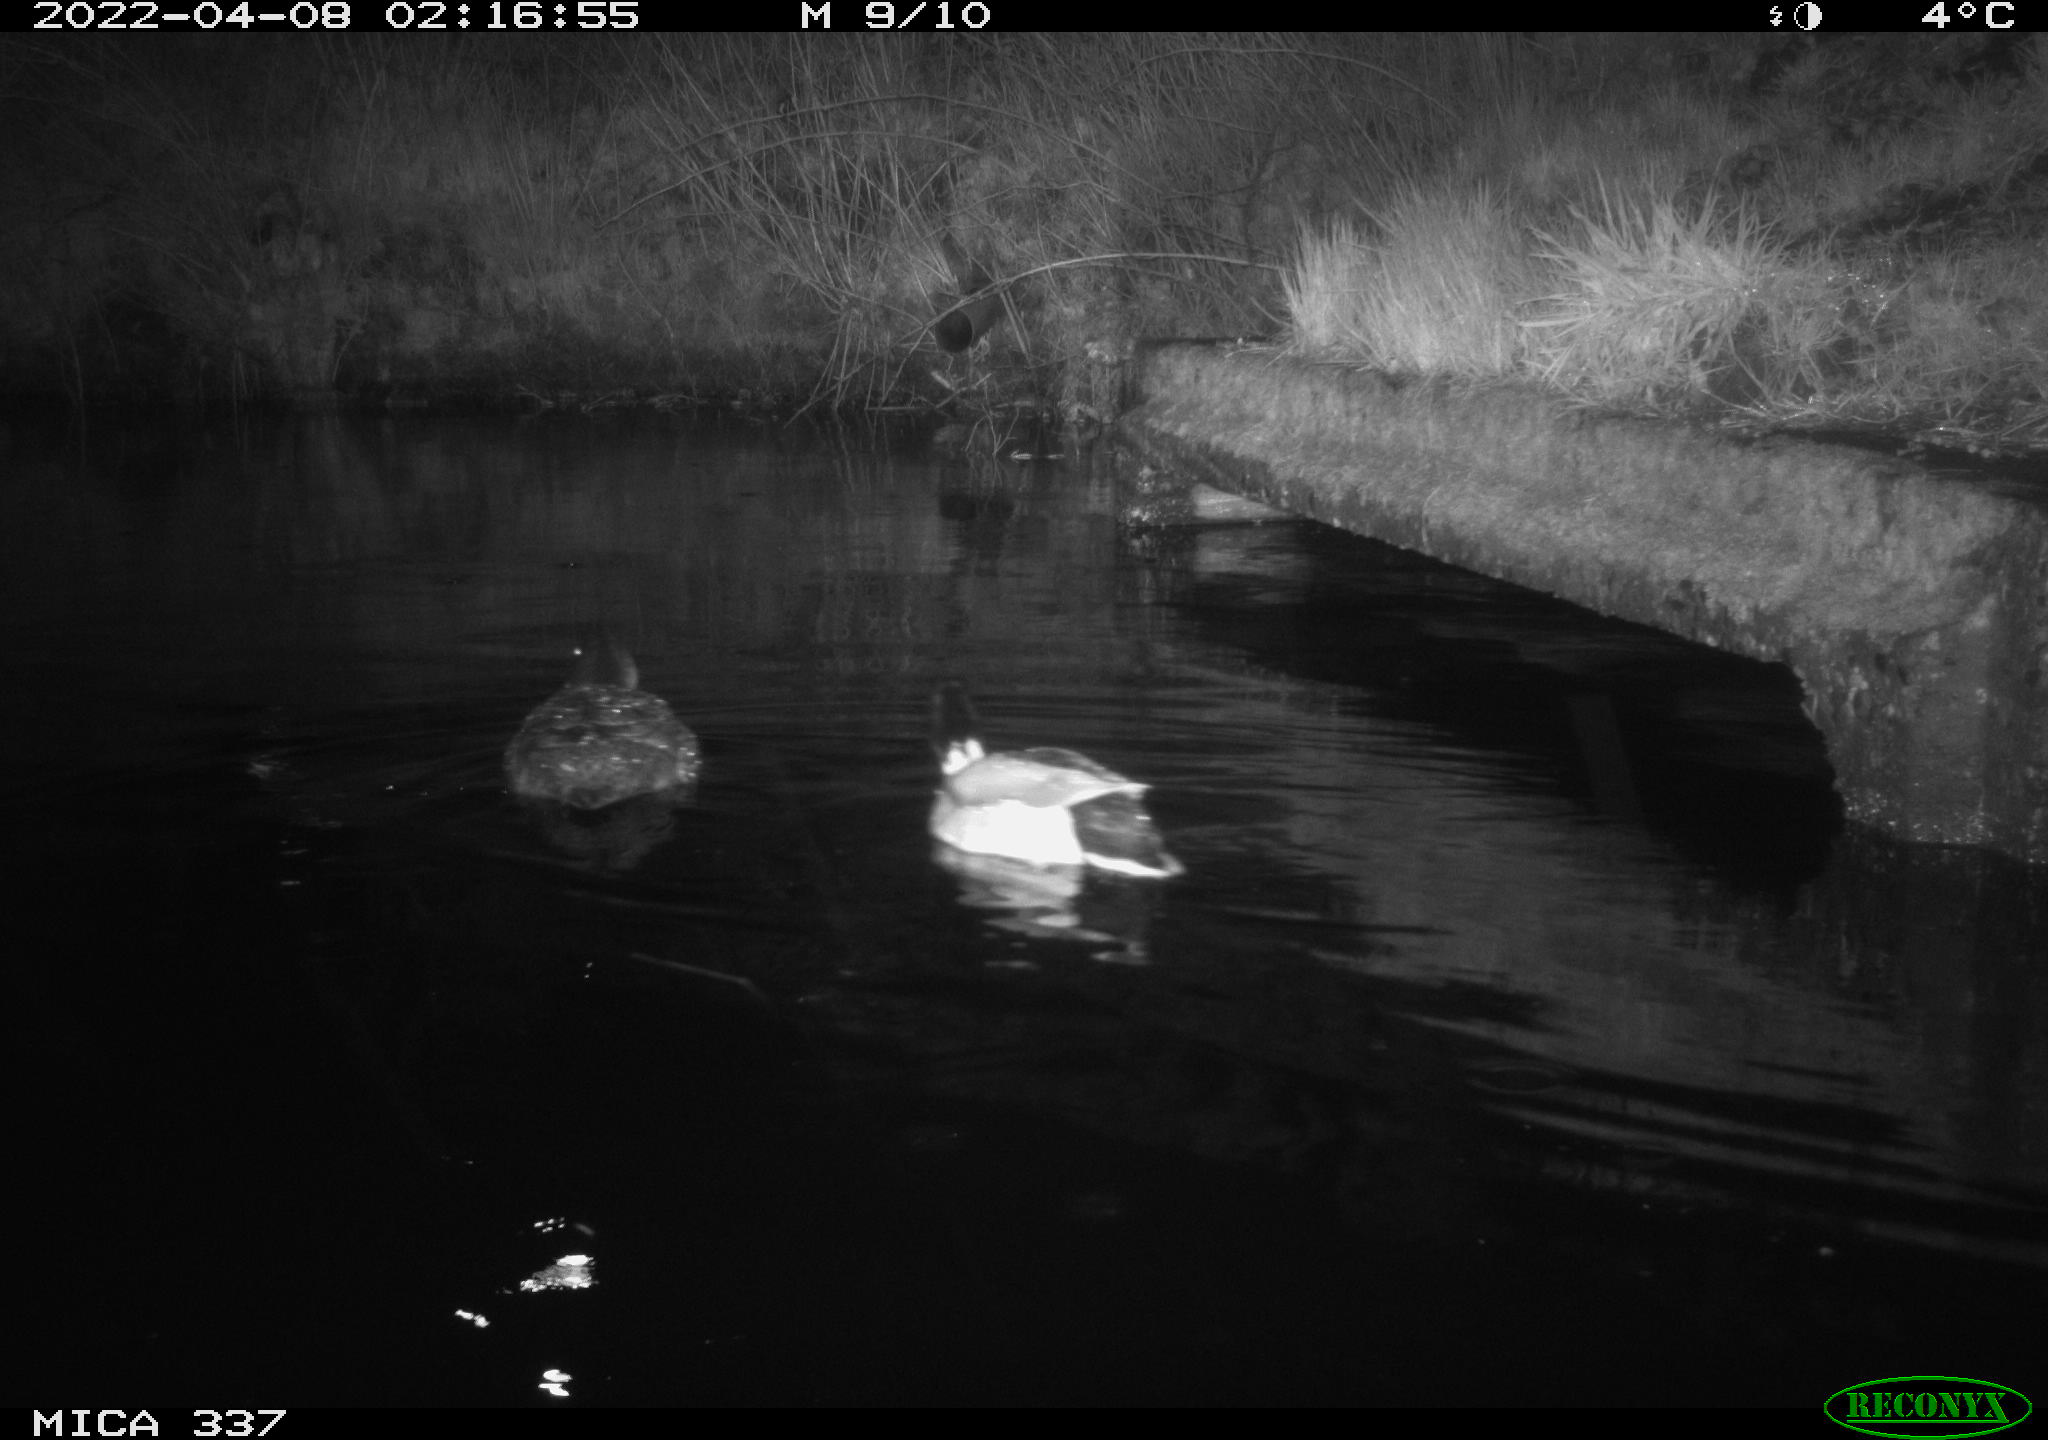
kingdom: Animalia
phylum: Chordata
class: Aves
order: Anseriformes
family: Anatidae
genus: Anas
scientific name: Anas platyrhynchos
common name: Mallard
